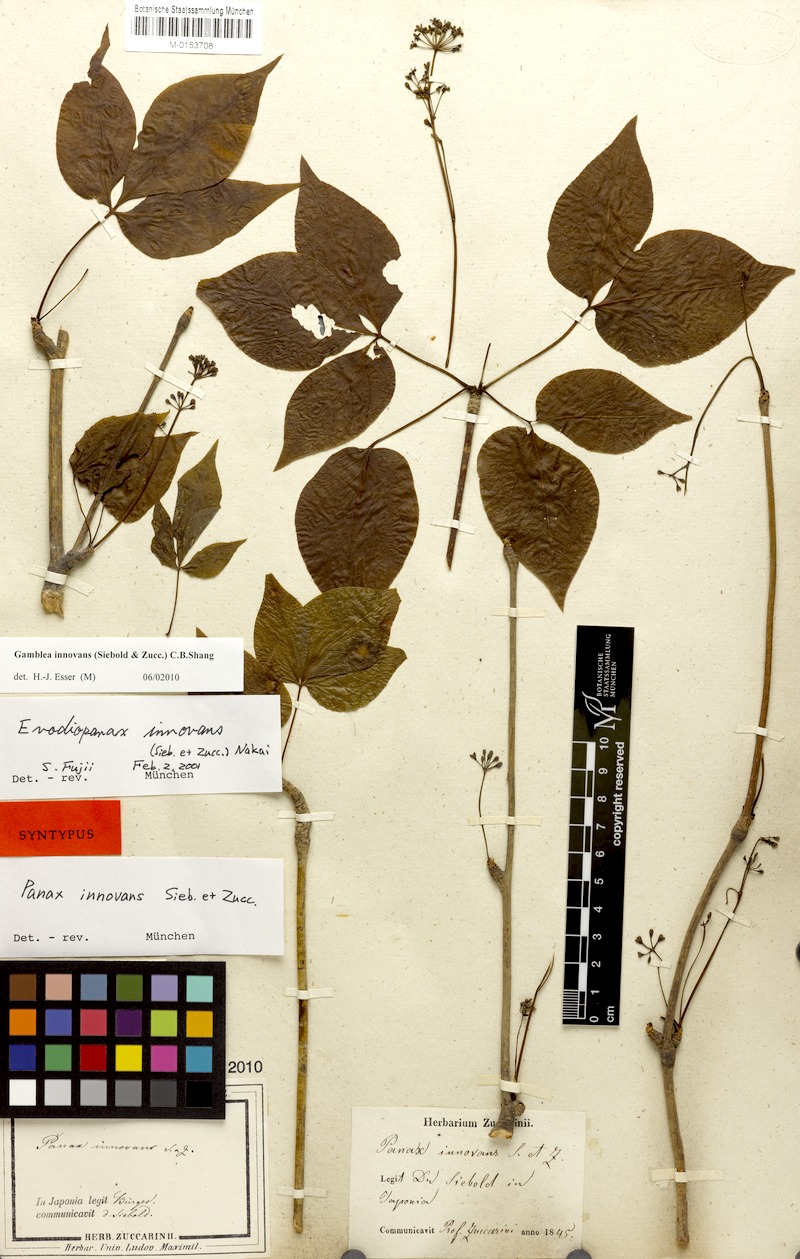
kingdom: Plantae
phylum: Tracheophyta
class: Magnoliopsida
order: Apiales
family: Araliaceae
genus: Gamblea
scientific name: Gamblea innovans
